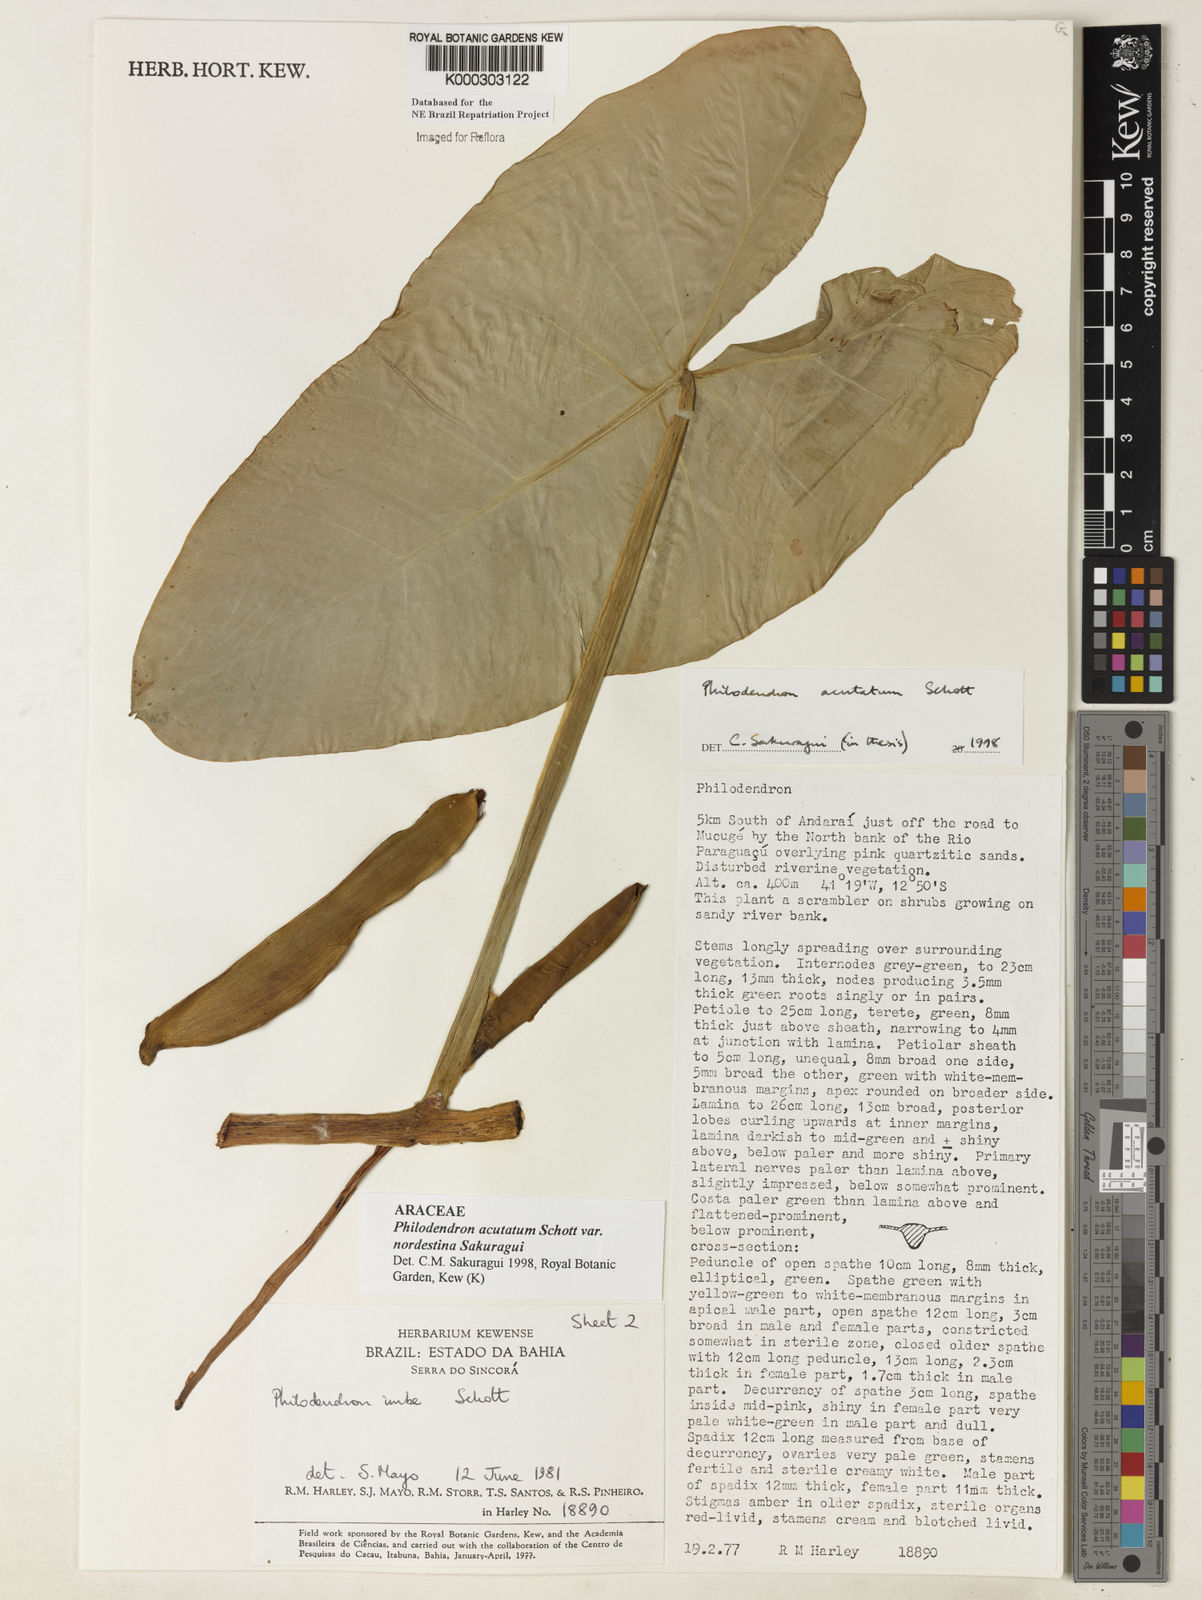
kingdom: Plantae
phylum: Tracheophyta
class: Liliopsida
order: Alismatales
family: Araceae
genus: Philodendron
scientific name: Philodendron quinquenervium
